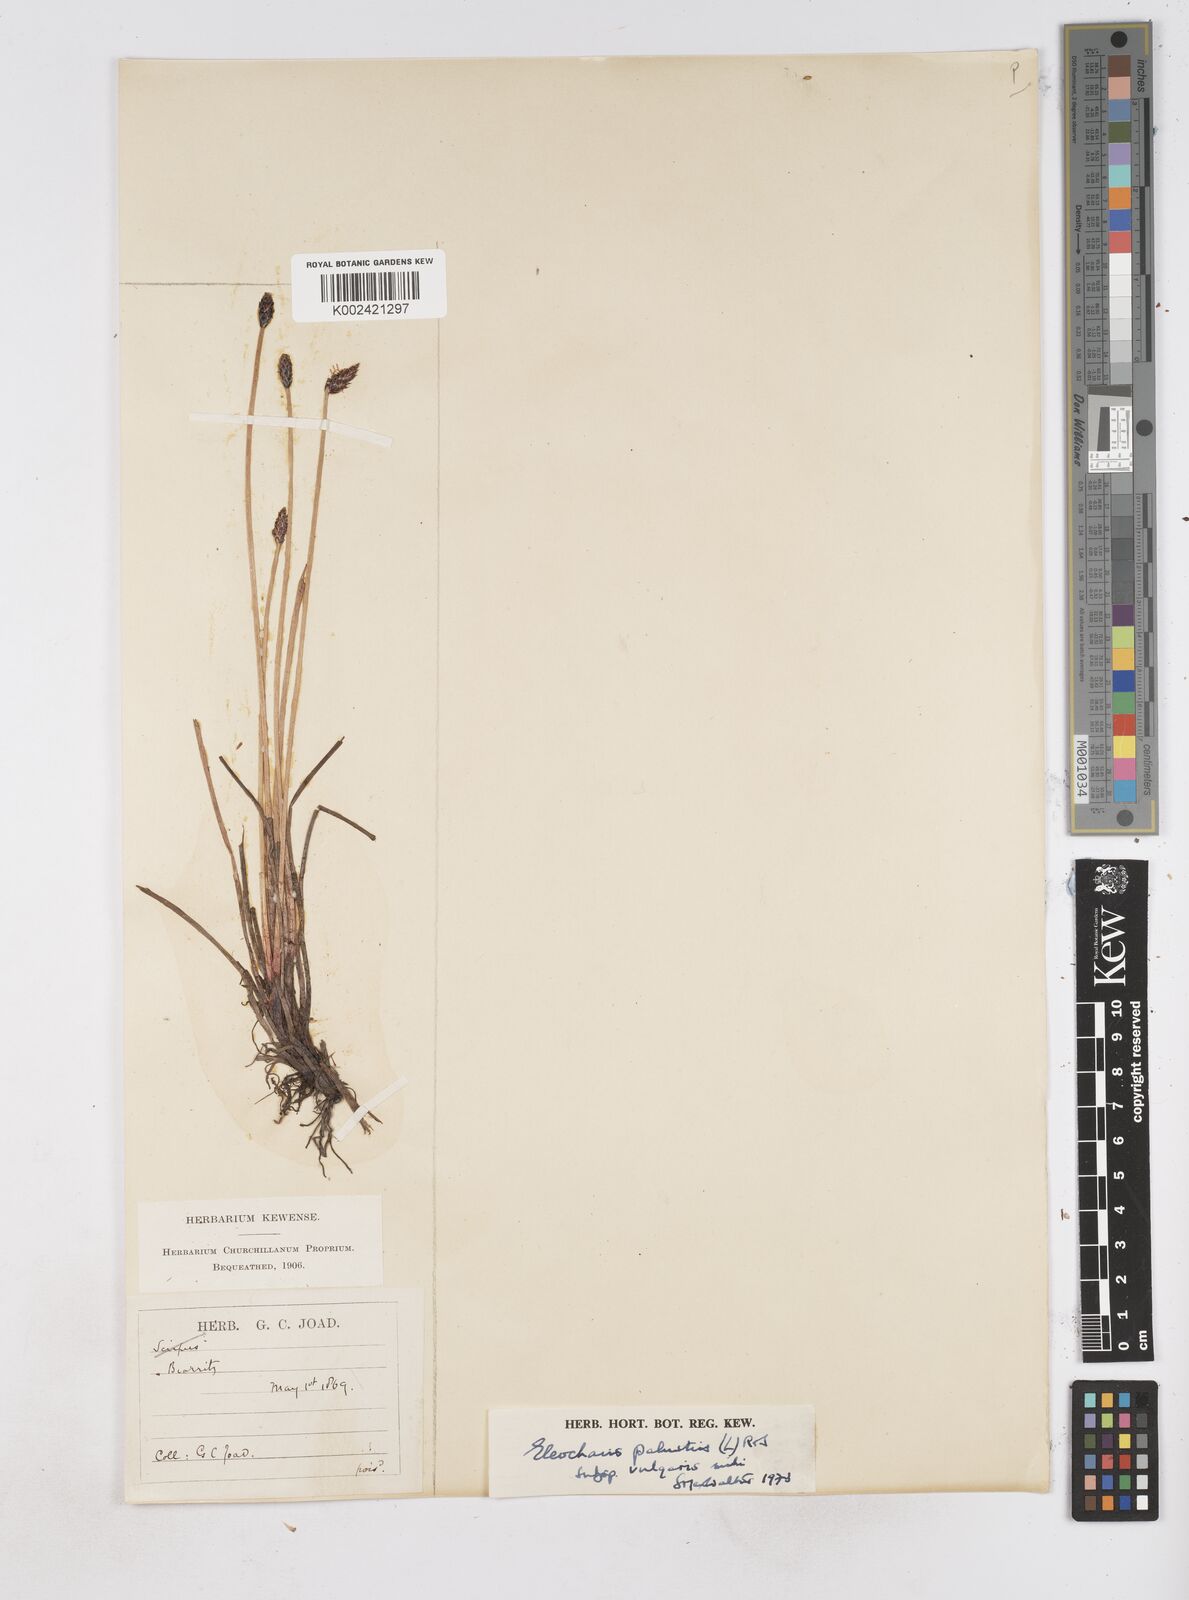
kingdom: Plantae
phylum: Tracheophyta
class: Liliopsida
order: Poales
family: Cyperaceae
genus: Eleocharis
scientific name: Eleocharis palustris
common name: Common spike-rush
